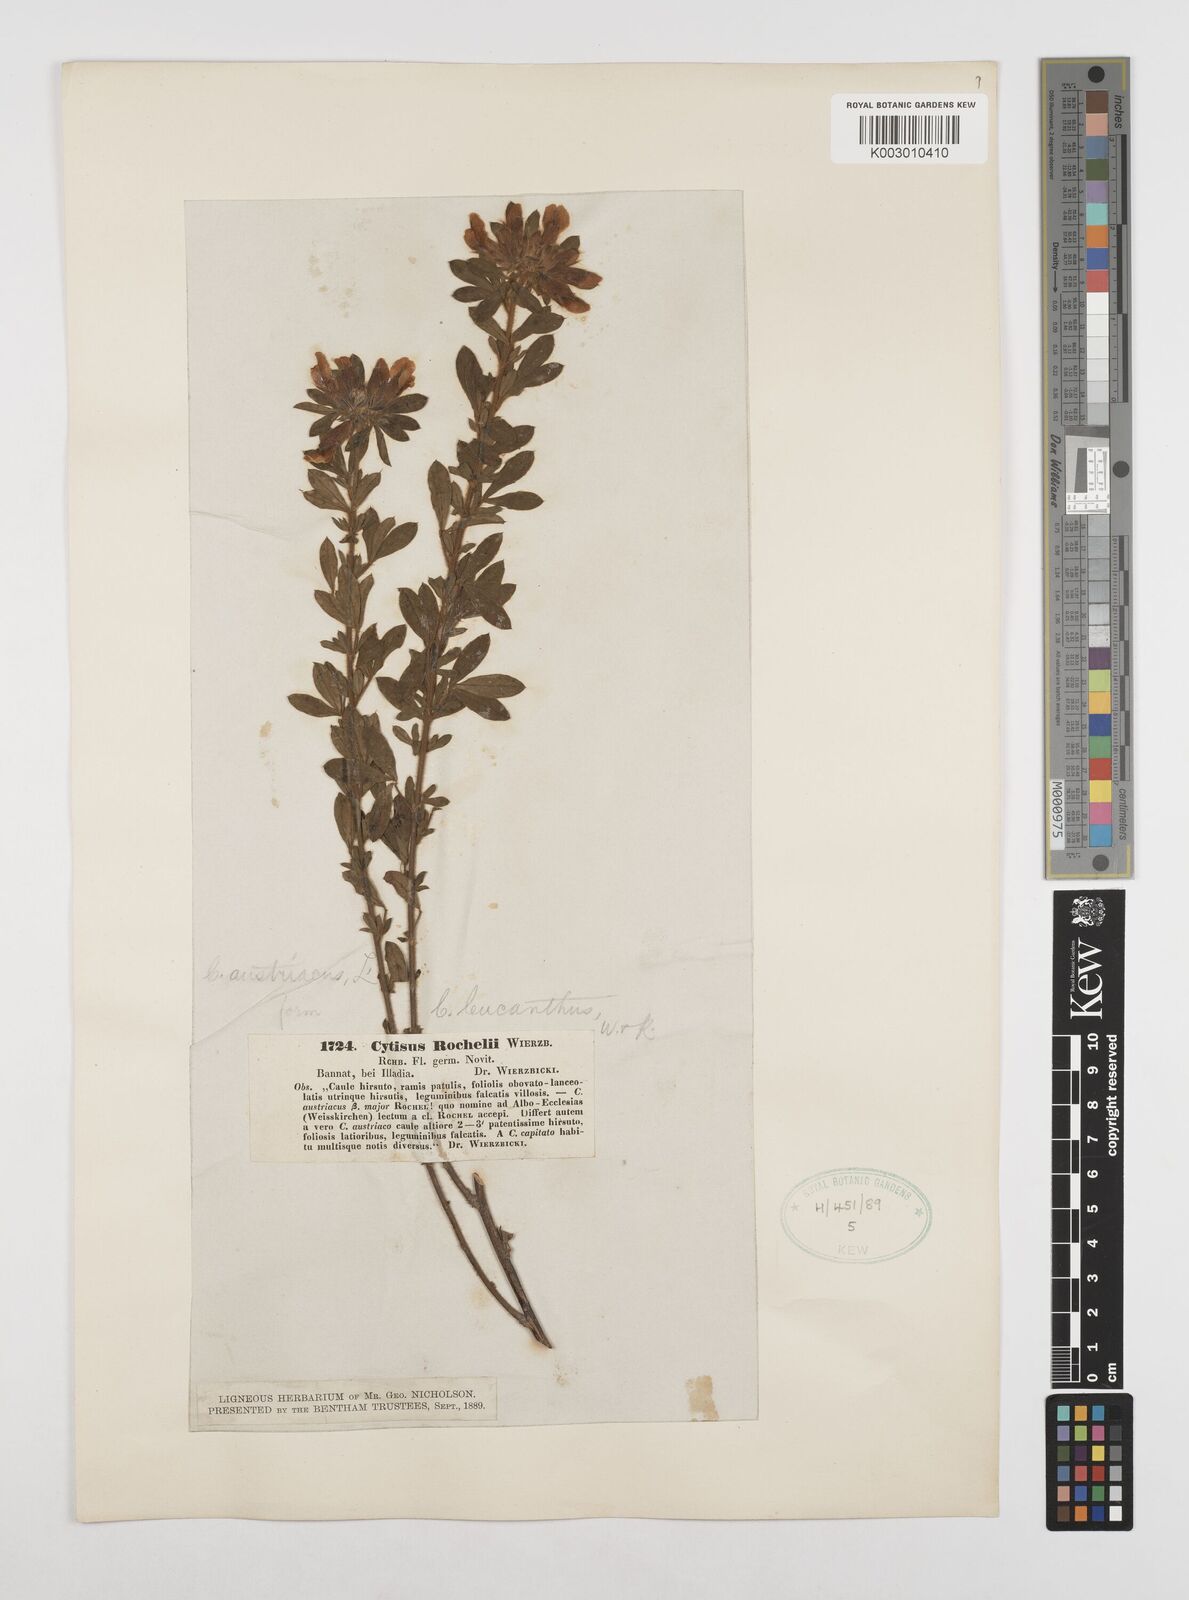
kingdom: Plantae
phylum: Tracheophyta
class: Magnoliopsida
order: Fabales
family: Fabaceae
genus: Chamaecytisus
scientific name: Chamaecytisus rochelii
